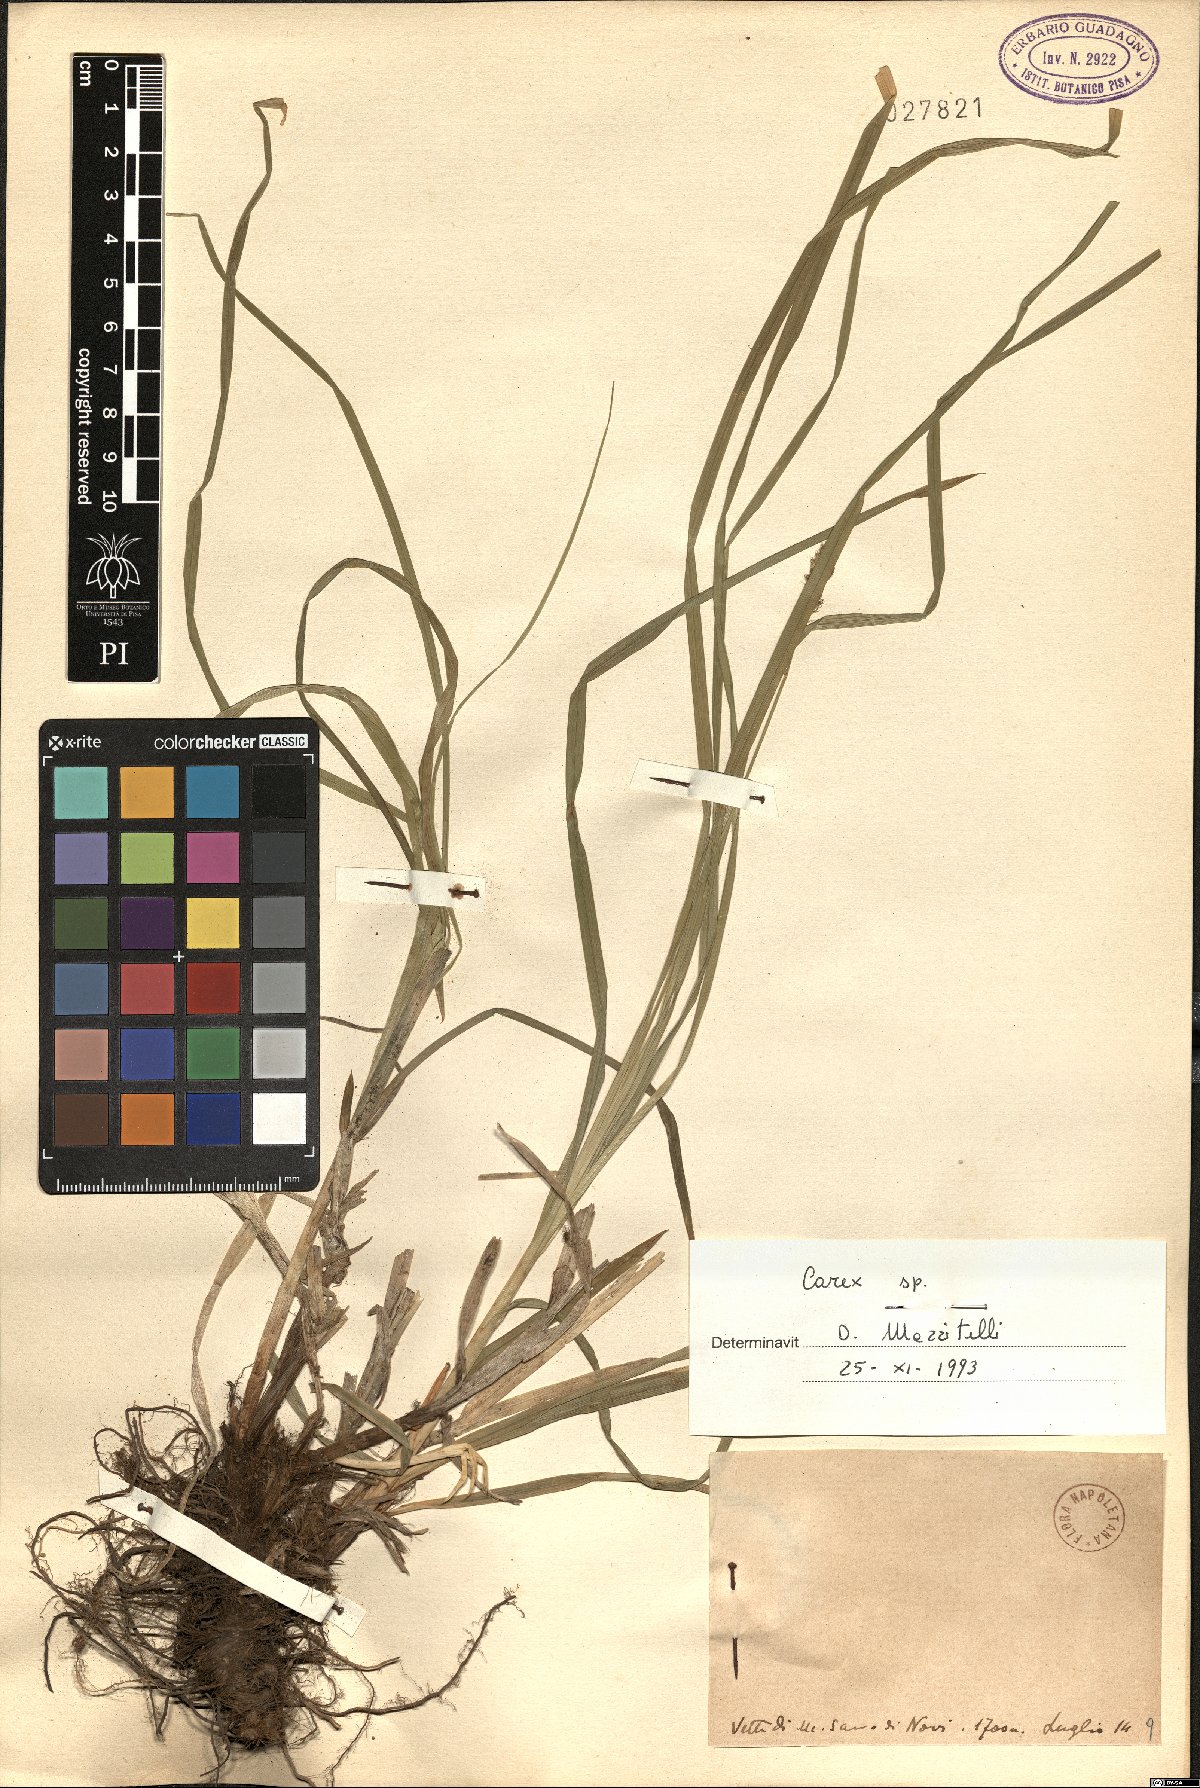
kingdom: Plantae
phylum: Tracheophyta
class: Liliopsida
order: Poales
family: Cyperaceae
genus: Carex
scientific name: Carex
